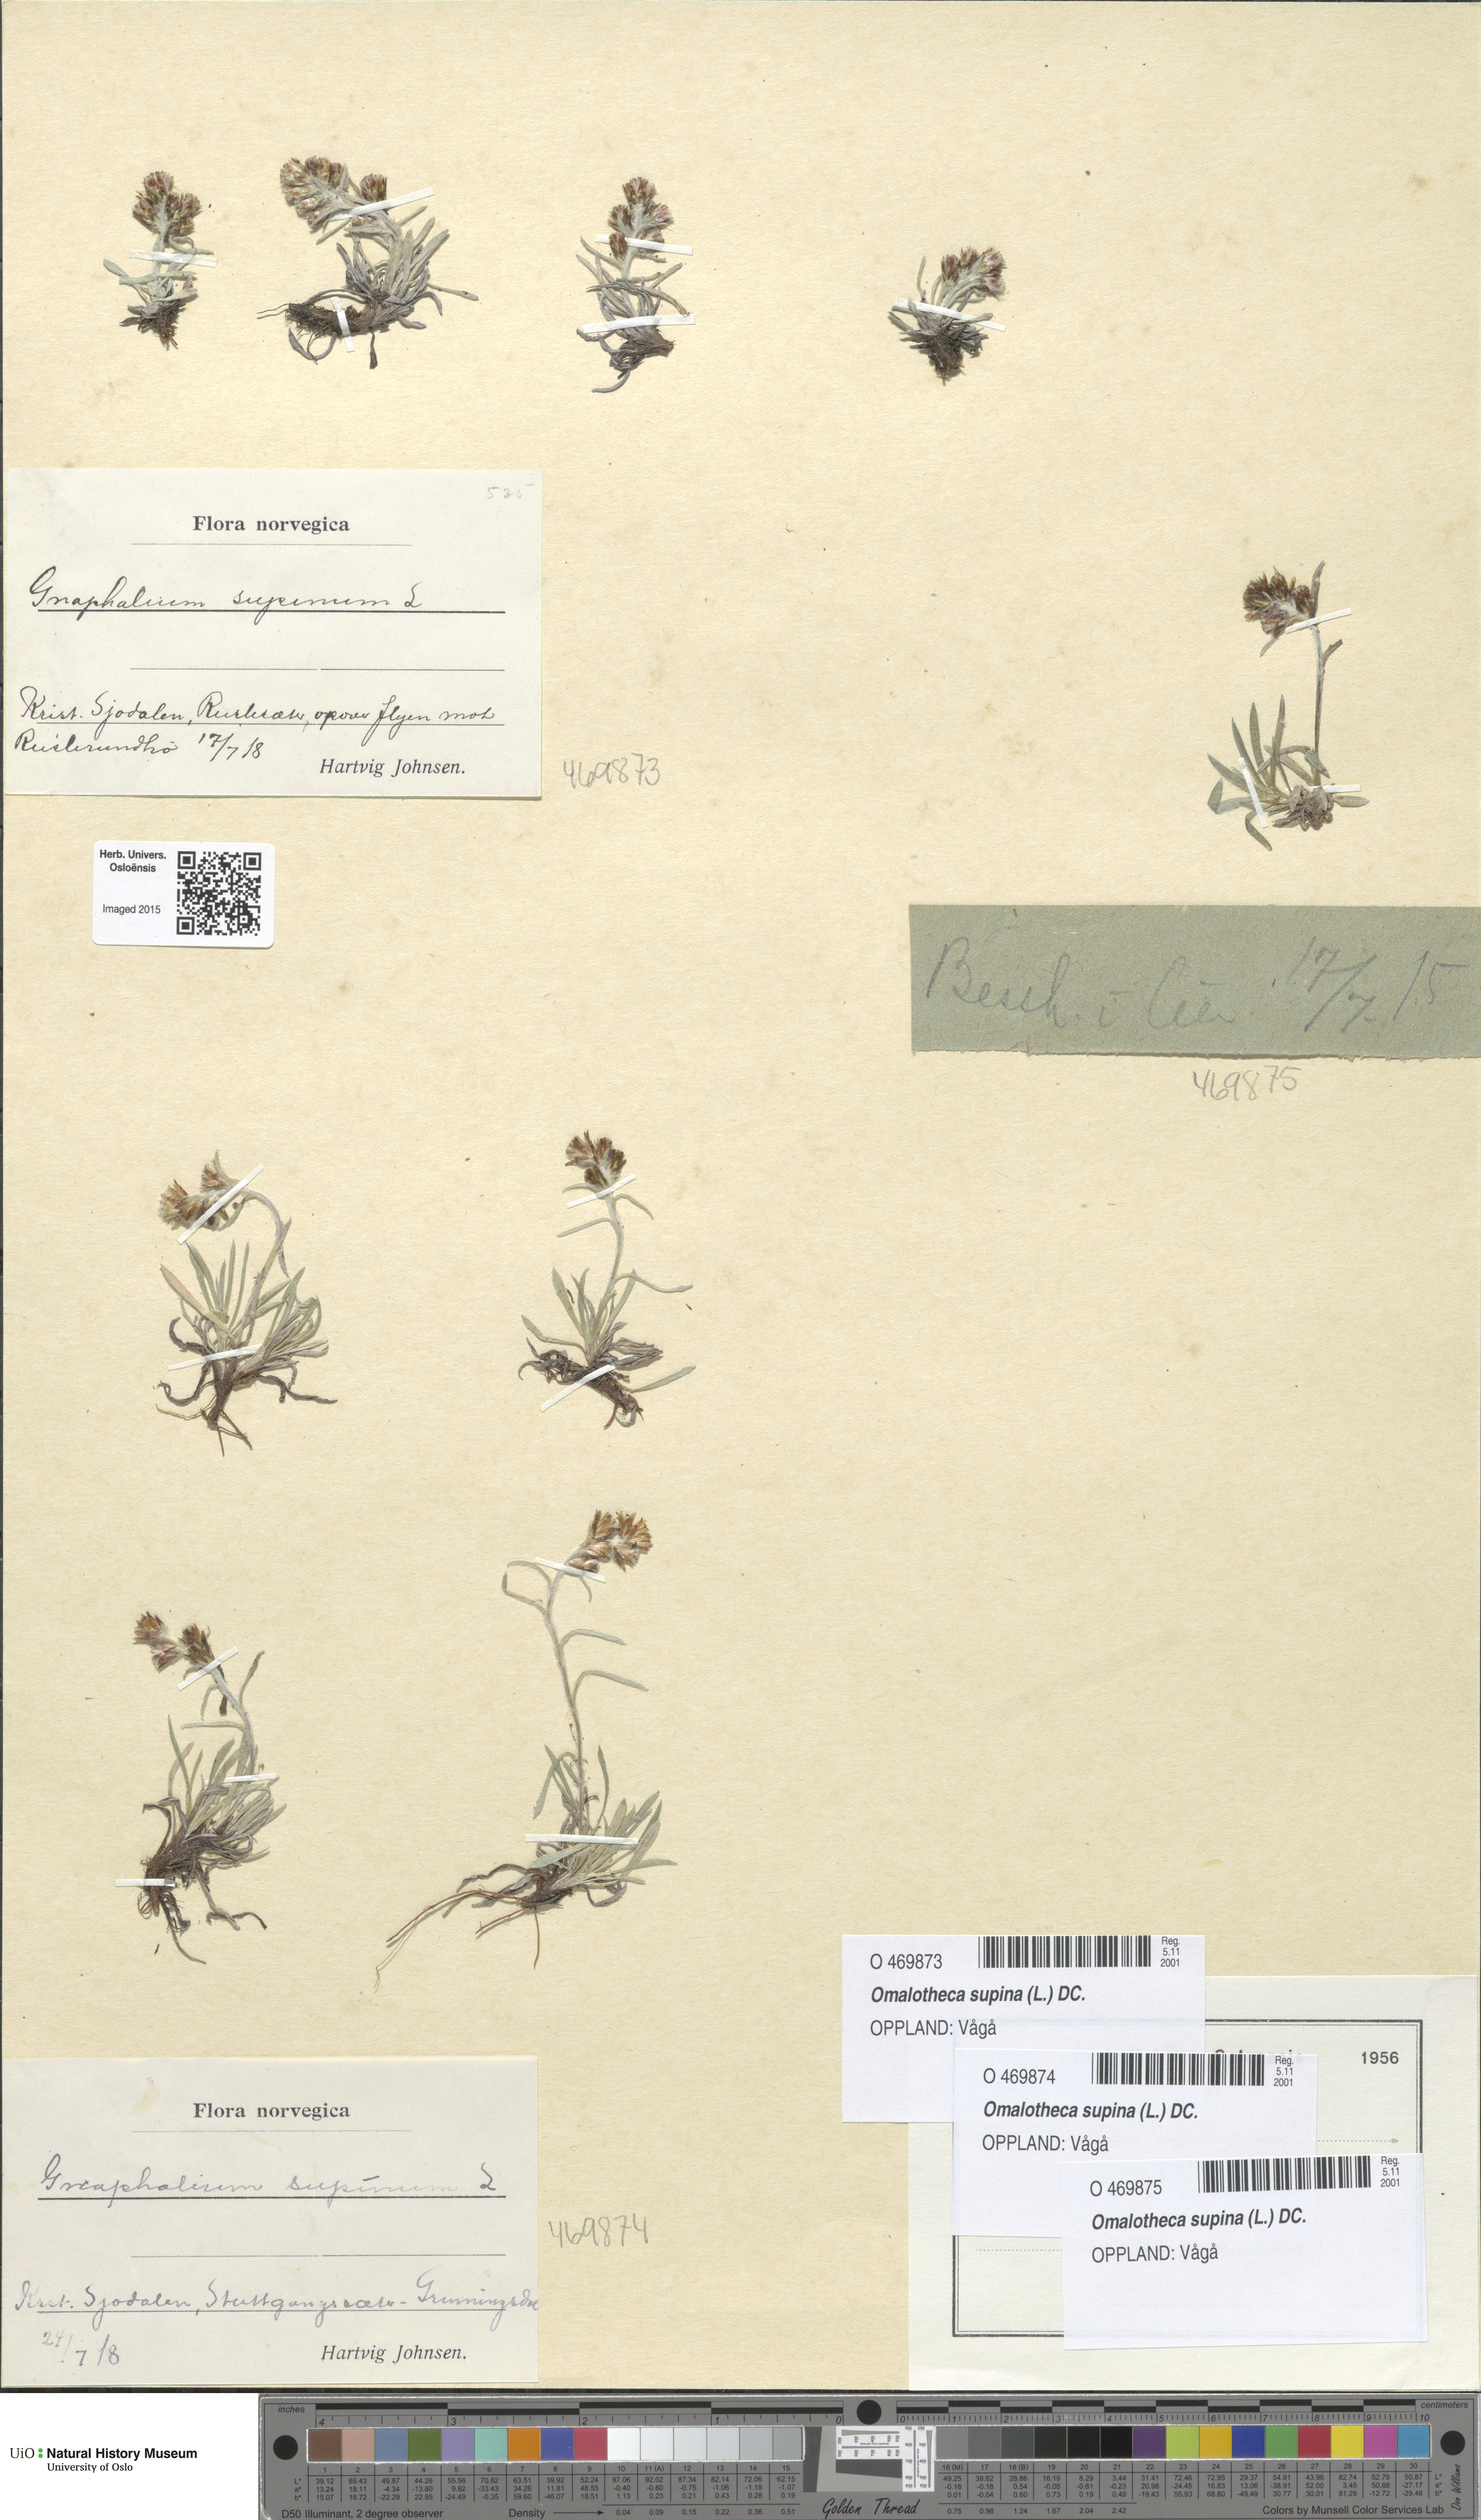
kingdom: Plantae
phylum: Tracheophyta
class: Magnoliopsida
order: Asterales
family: Asteraceae
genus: Omalotheca
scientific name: Omalotheca supina
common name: Alpine arctic-cudweed
